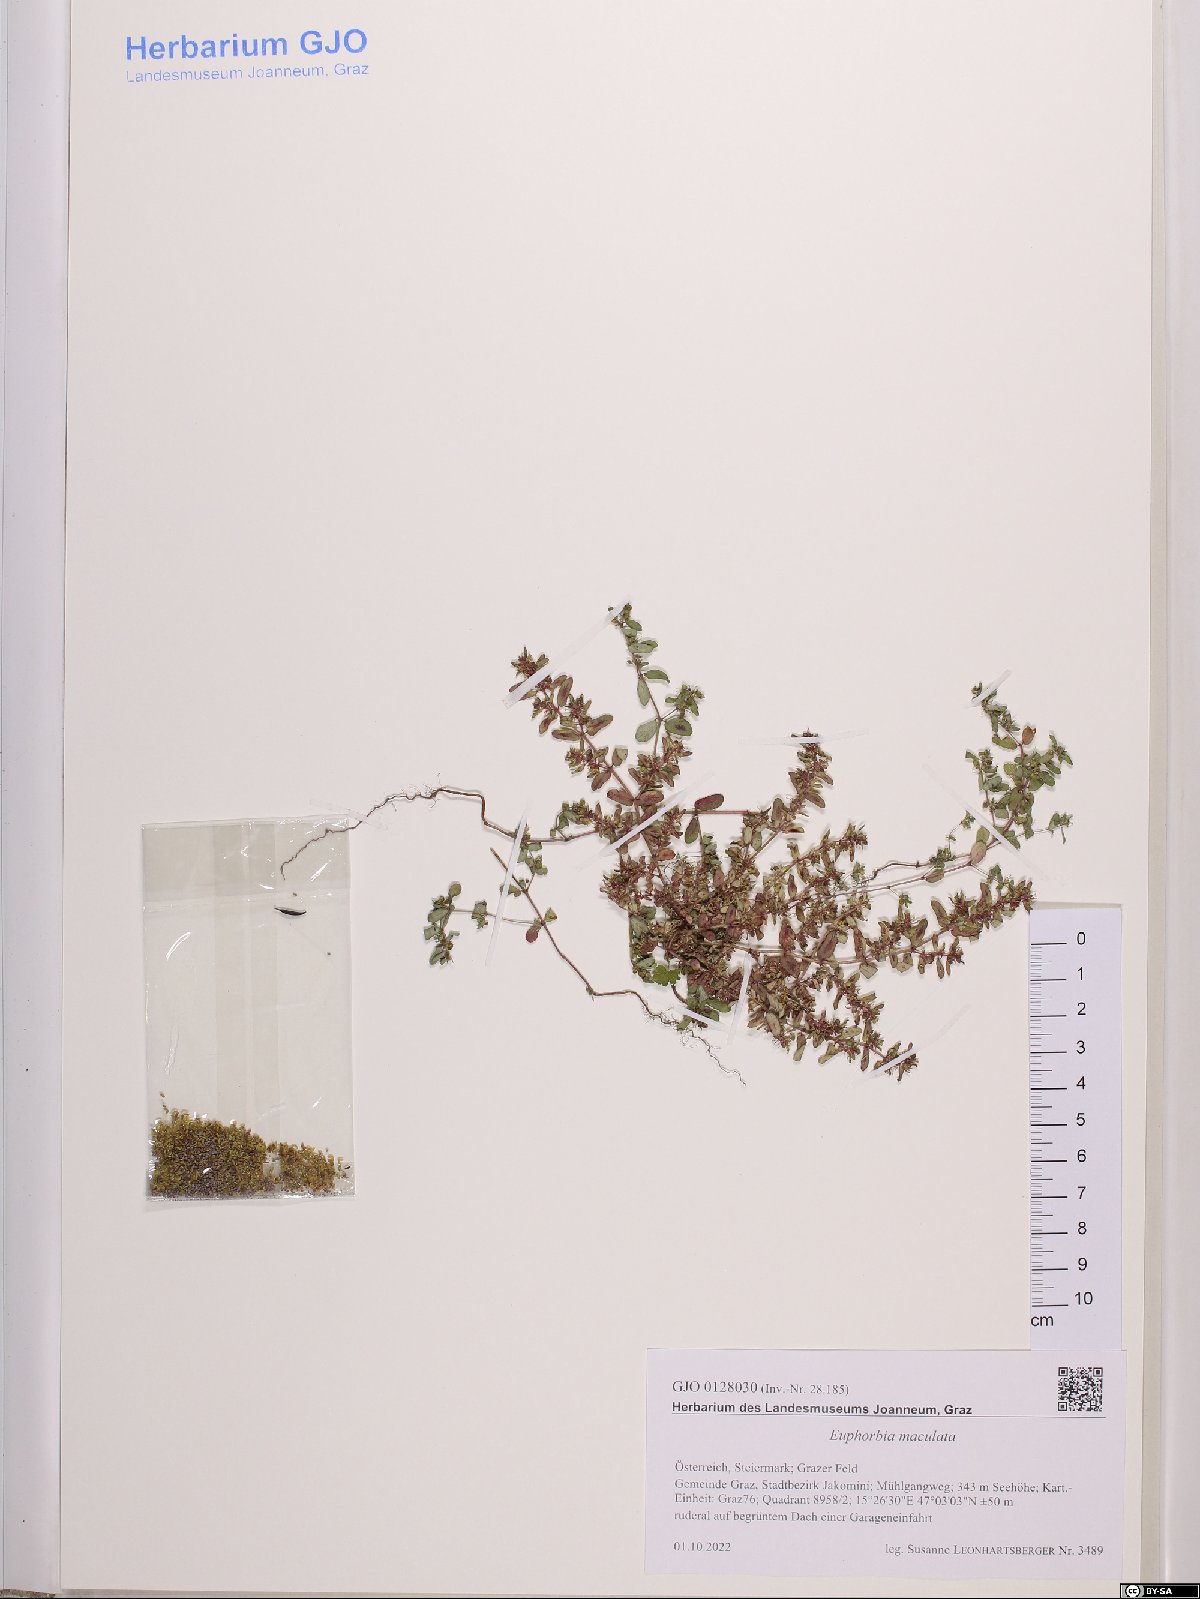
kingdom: Plantae
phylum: Tracheophyta
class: Magnoliopsida
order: Malpighiales
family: Euphorbiaceae
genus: Euphorbia
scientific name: Euphorbia maculata
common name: Spotted spurge
